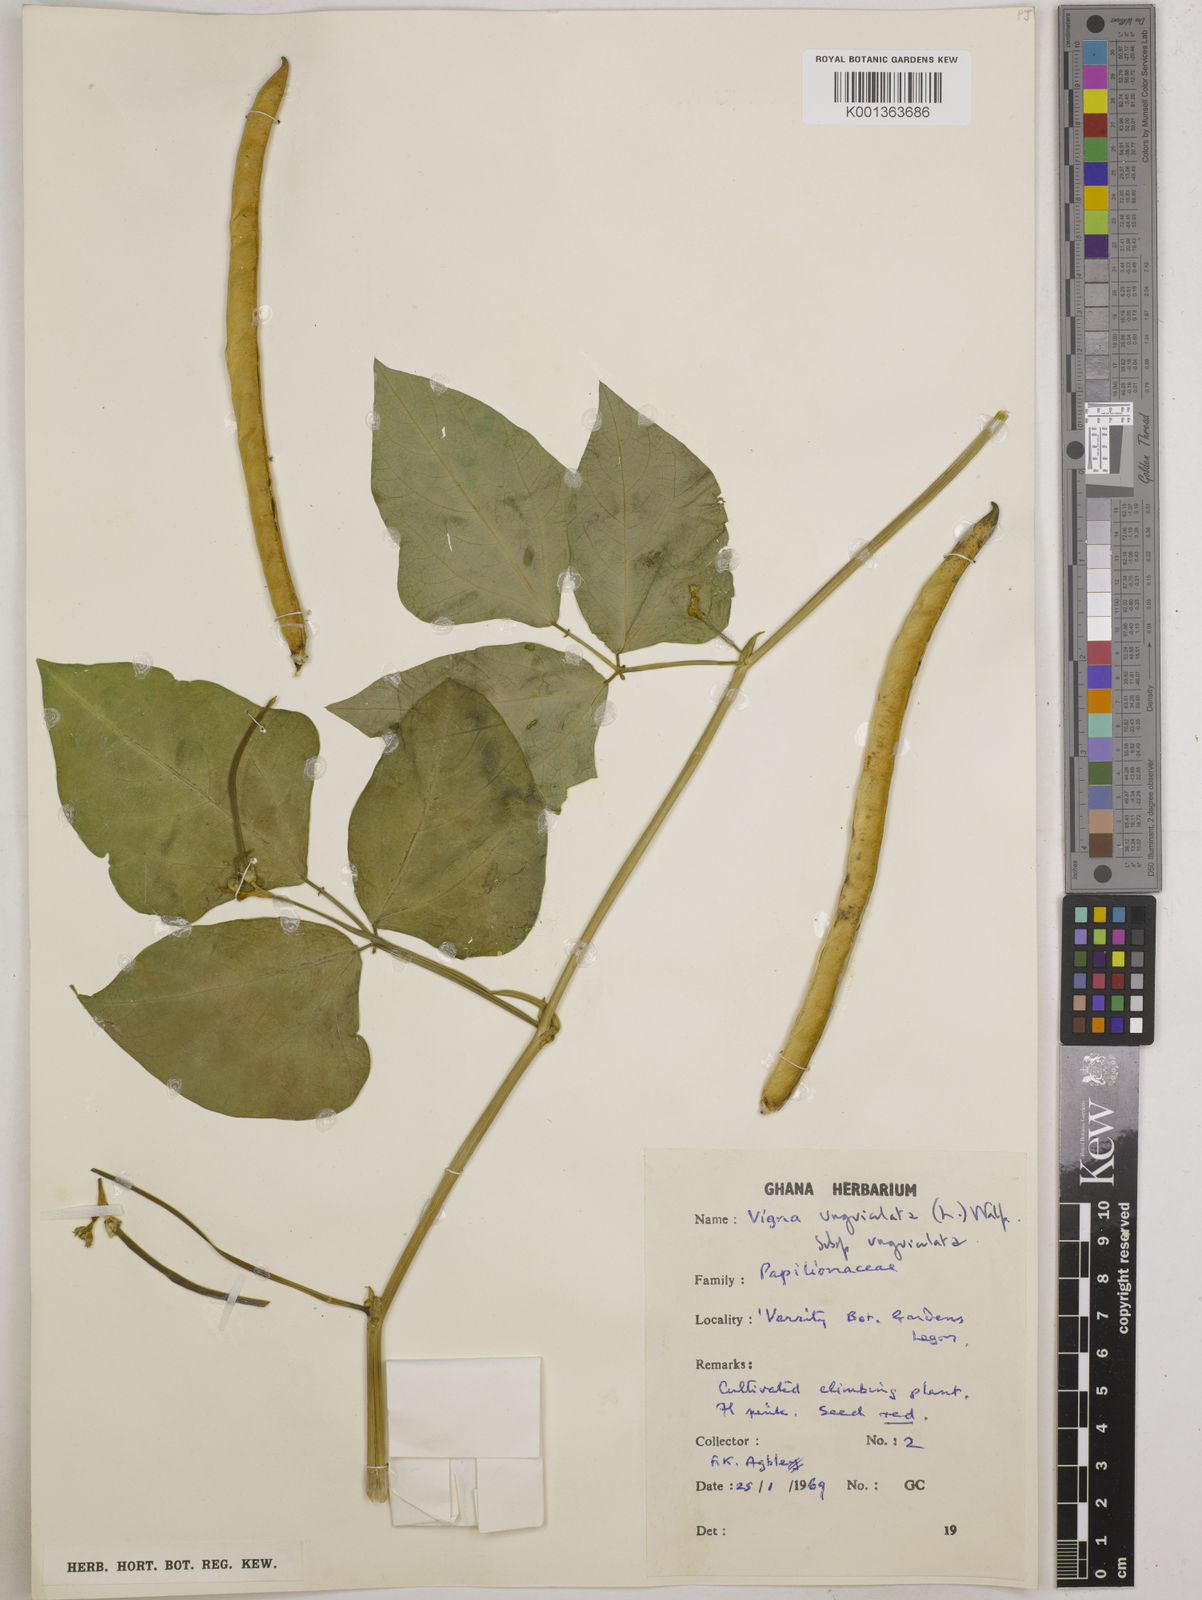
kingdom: Plantae
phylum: Tracheophyta
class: Magnoliopsida
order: Fabales
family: Fabaceae
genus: Vigna
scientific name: Vigna unguiculata
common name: Cowpea
